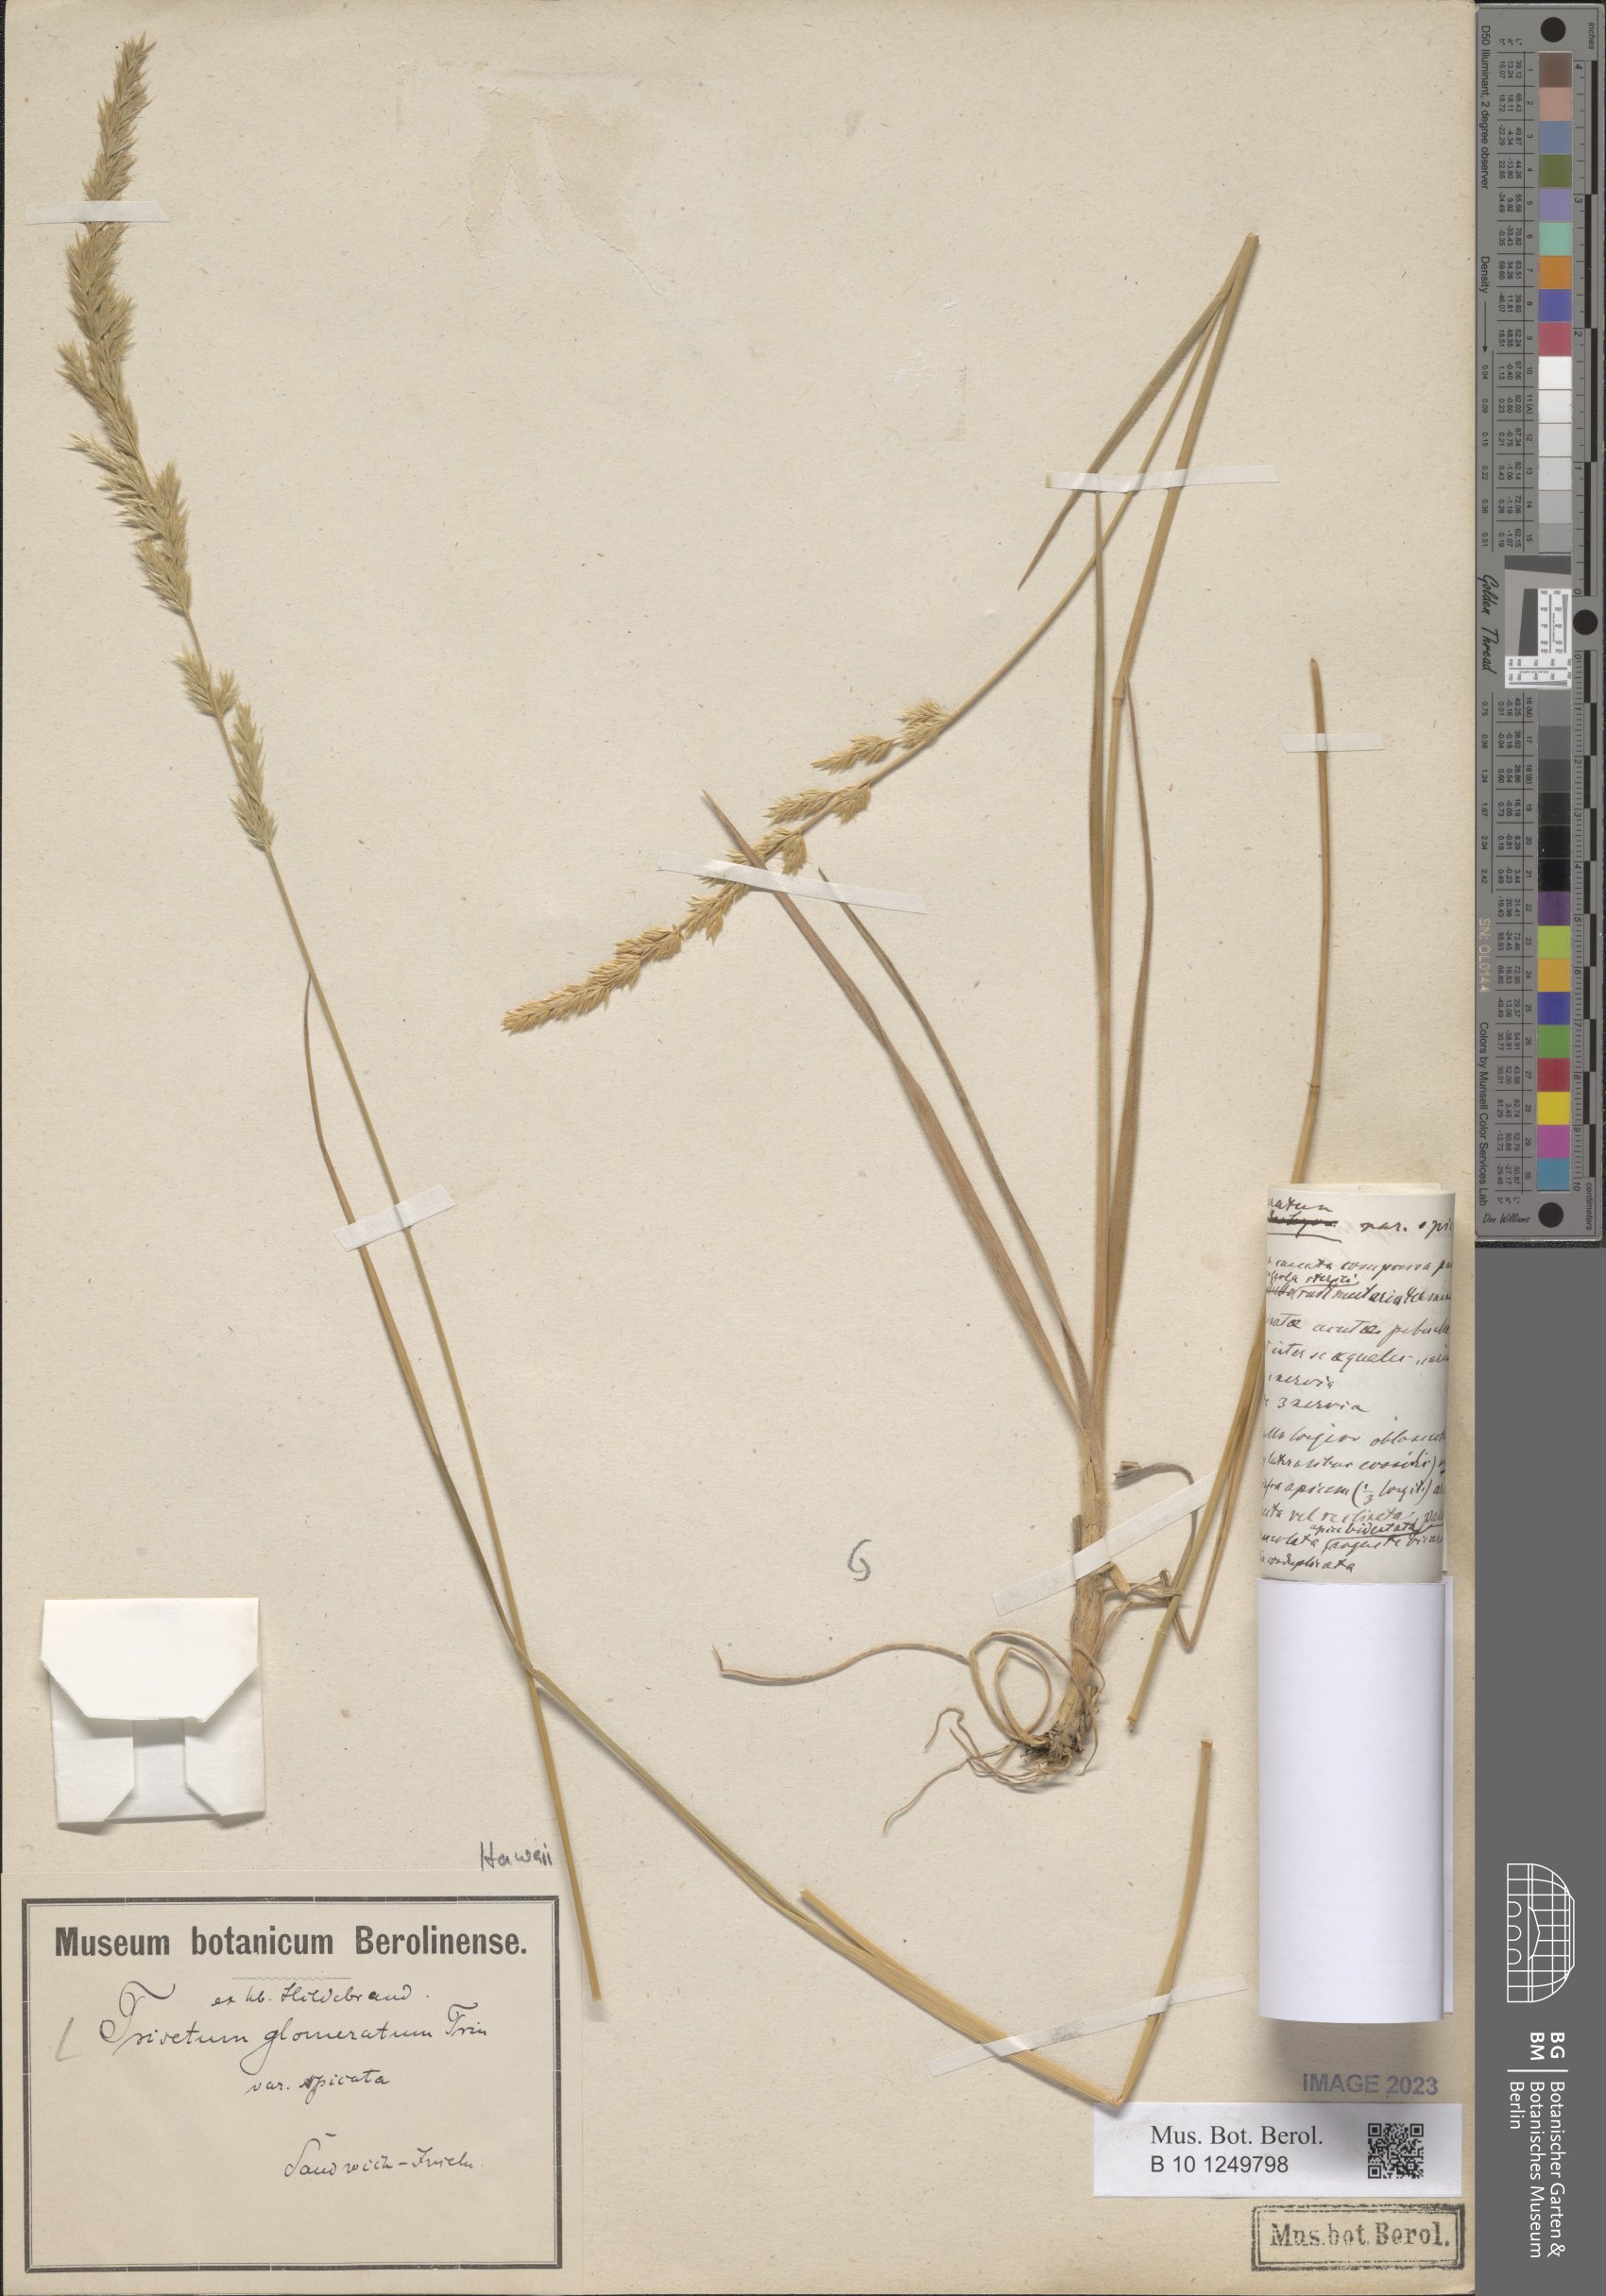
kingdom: Plantae
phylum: Tracheophyta
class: Liliopsida
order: Poales
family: Poaceae
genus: Trisetum
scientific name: Trisetum glomeratum
